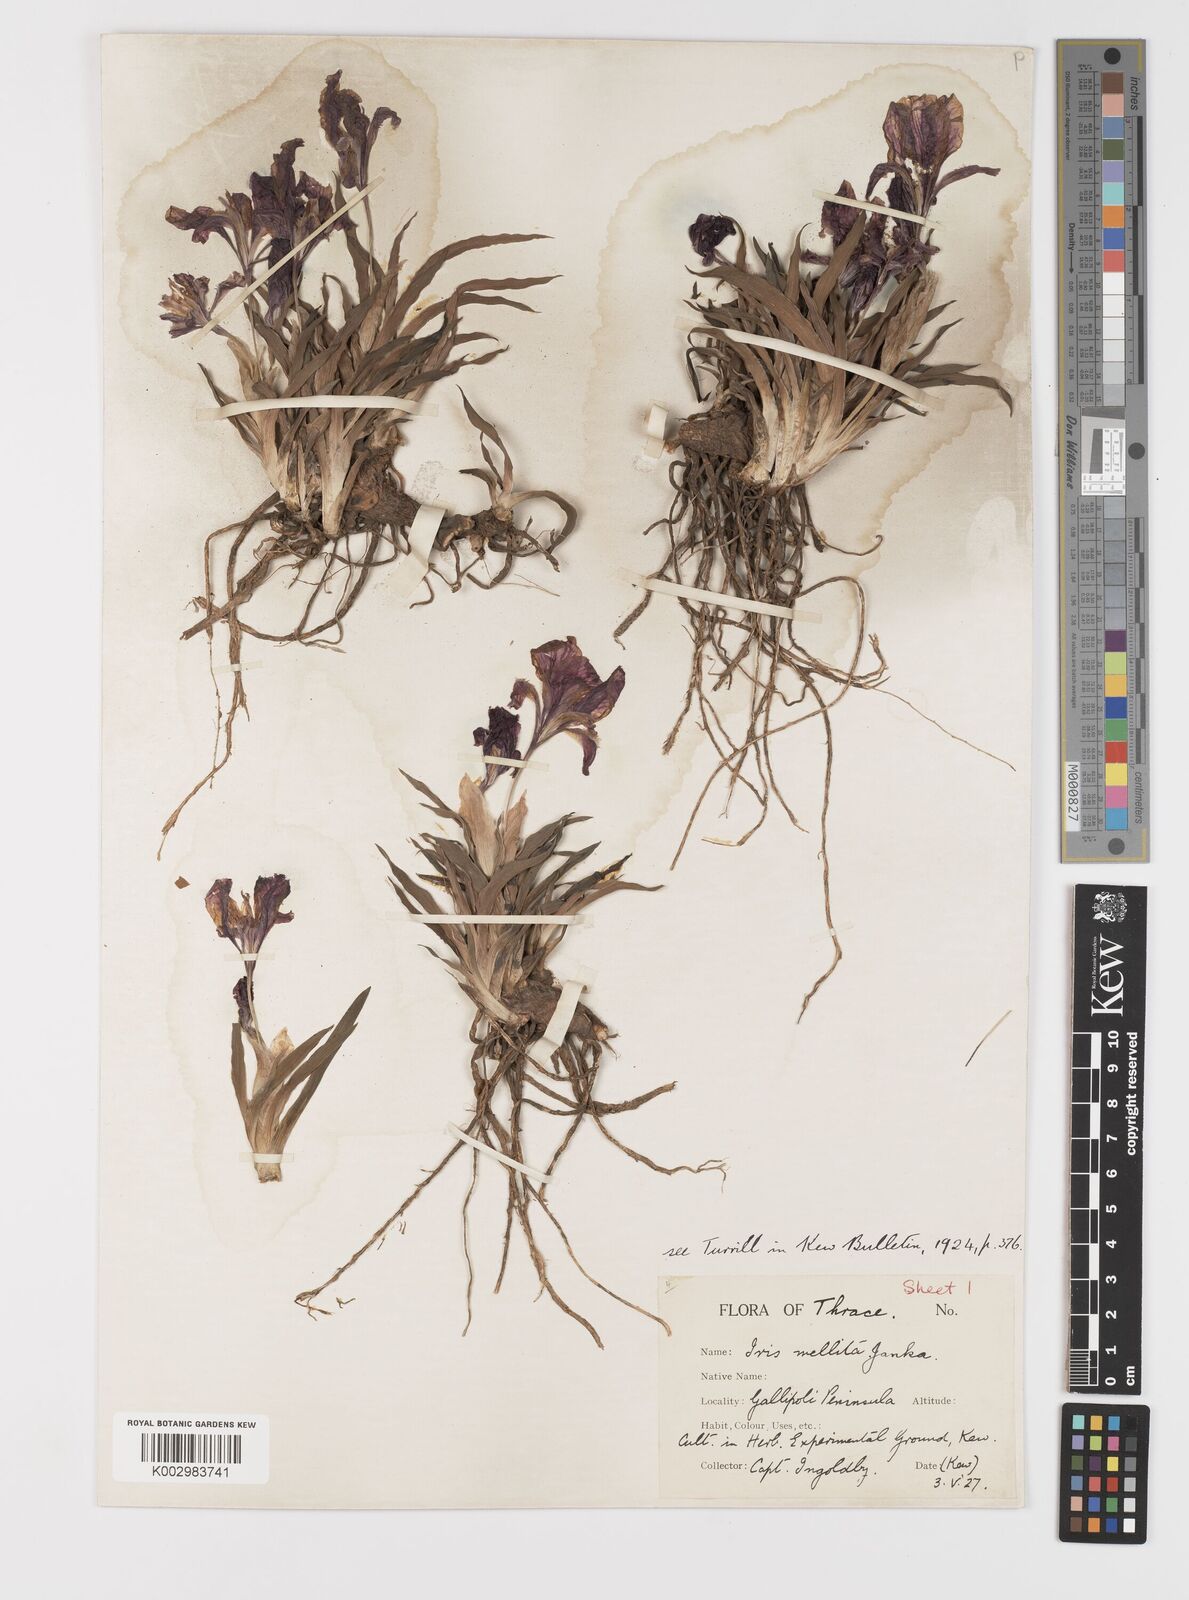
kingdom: Plantae
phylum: Tracheophyta
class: Liliopsida
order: Asparagales
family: Iridaceae
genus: Iris
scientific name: Iris suaveolens
